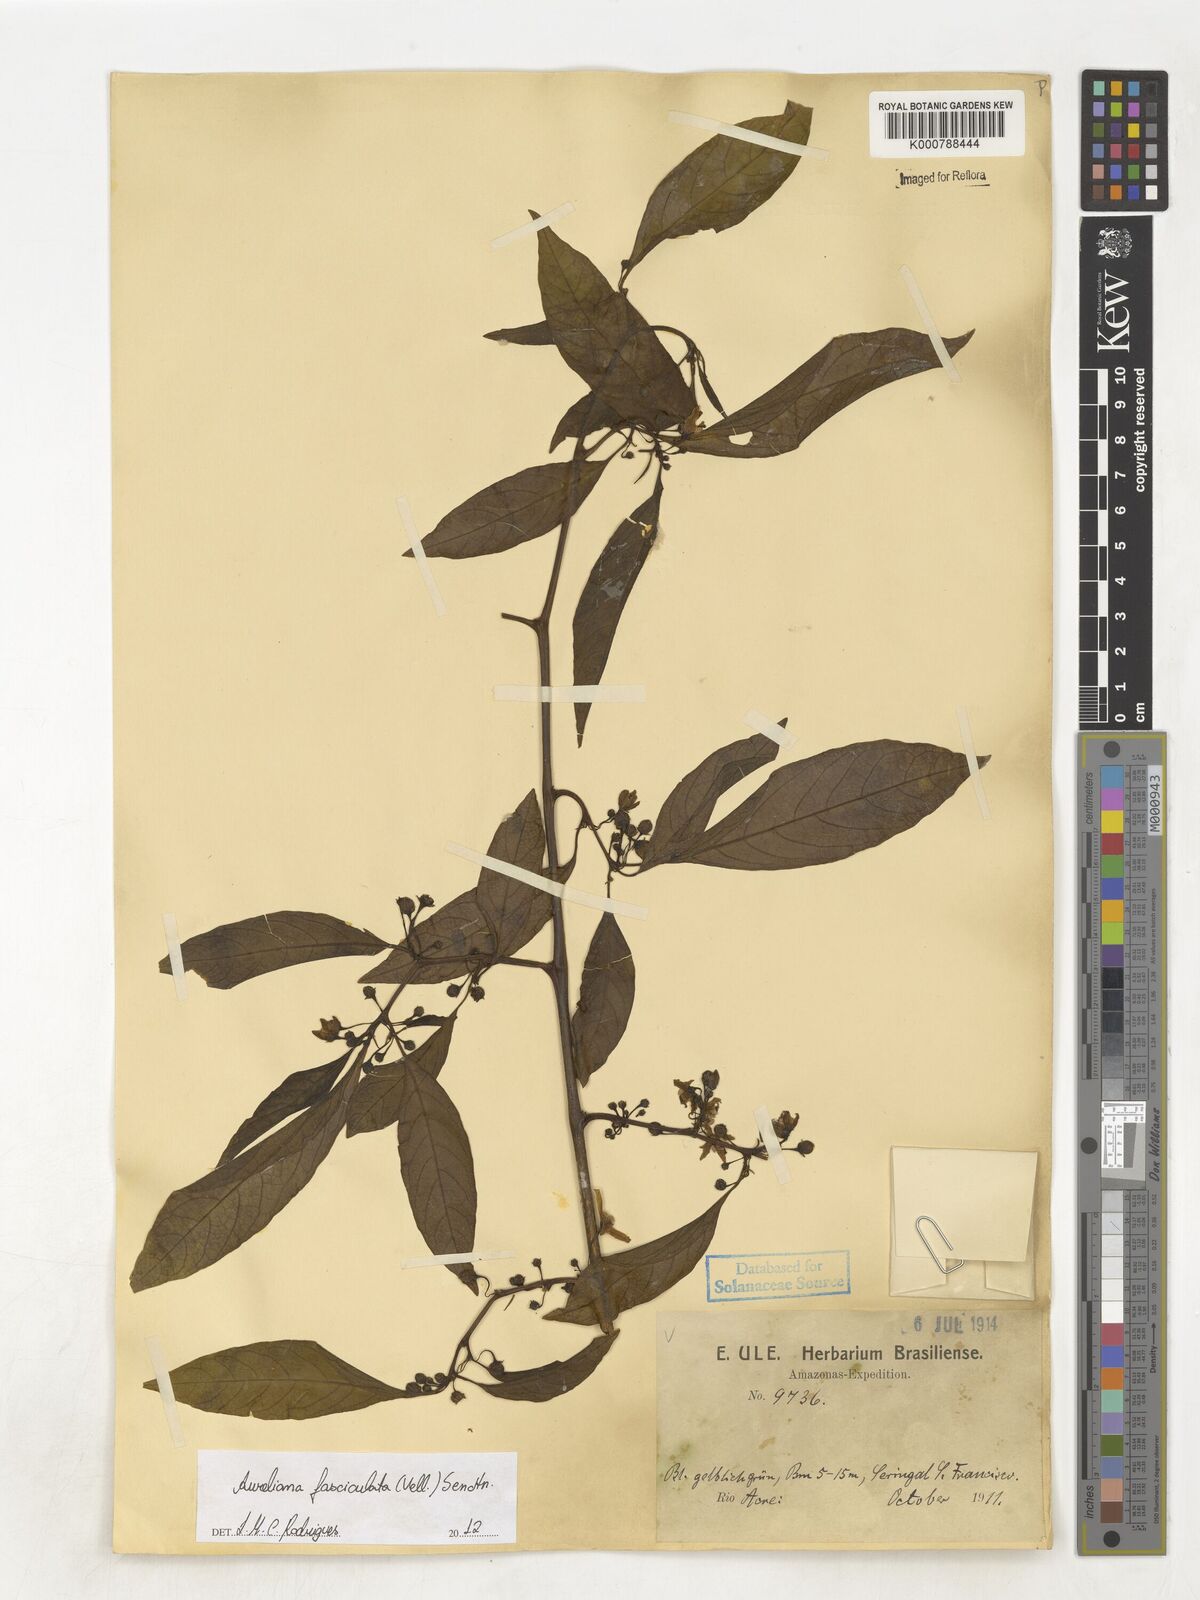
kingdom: Plantae
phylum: Tracheophyta
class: Magnoliopsida
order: Solanales
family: Solanaceae
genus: Athenaea
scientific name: Athenaea fasciculata
